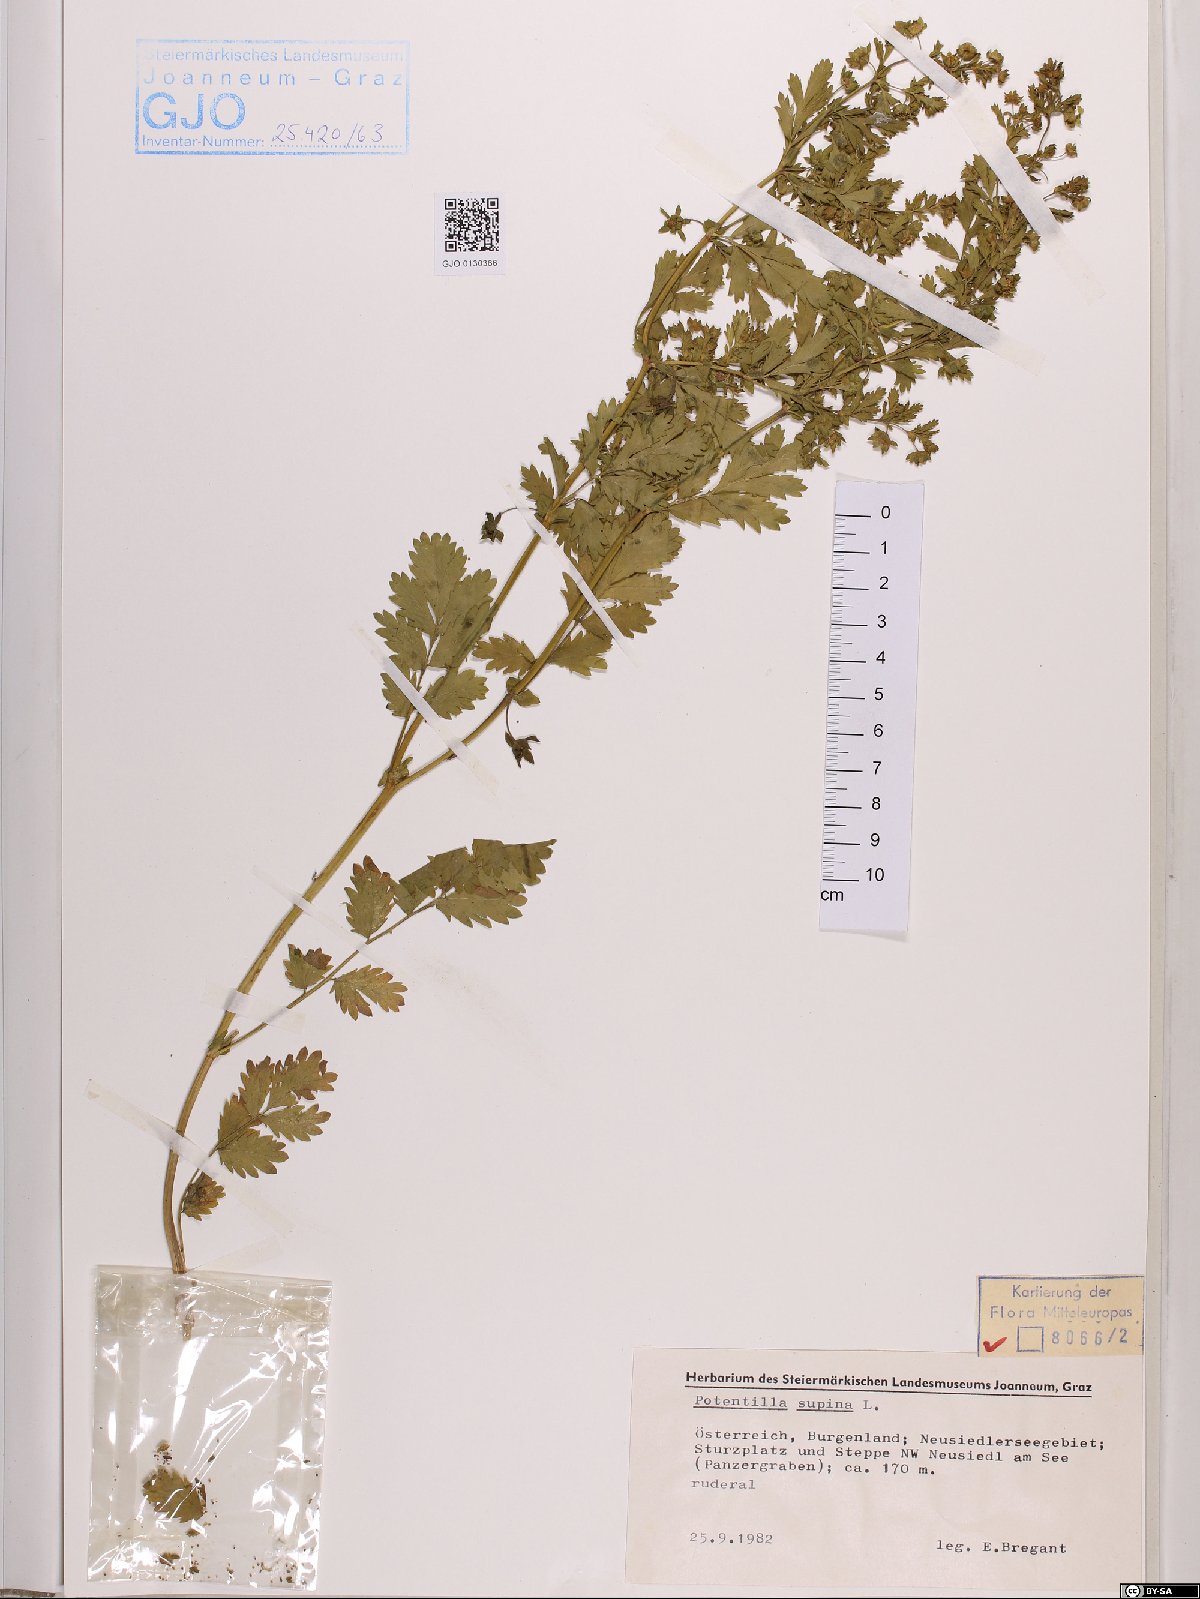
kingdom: Plantae
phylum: Tracheophyta
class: Magnoliopsida
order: Rosales
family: Rosaceae
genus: Potentilla
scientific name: Potentilla supina
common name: Prostrate cinquefoil
